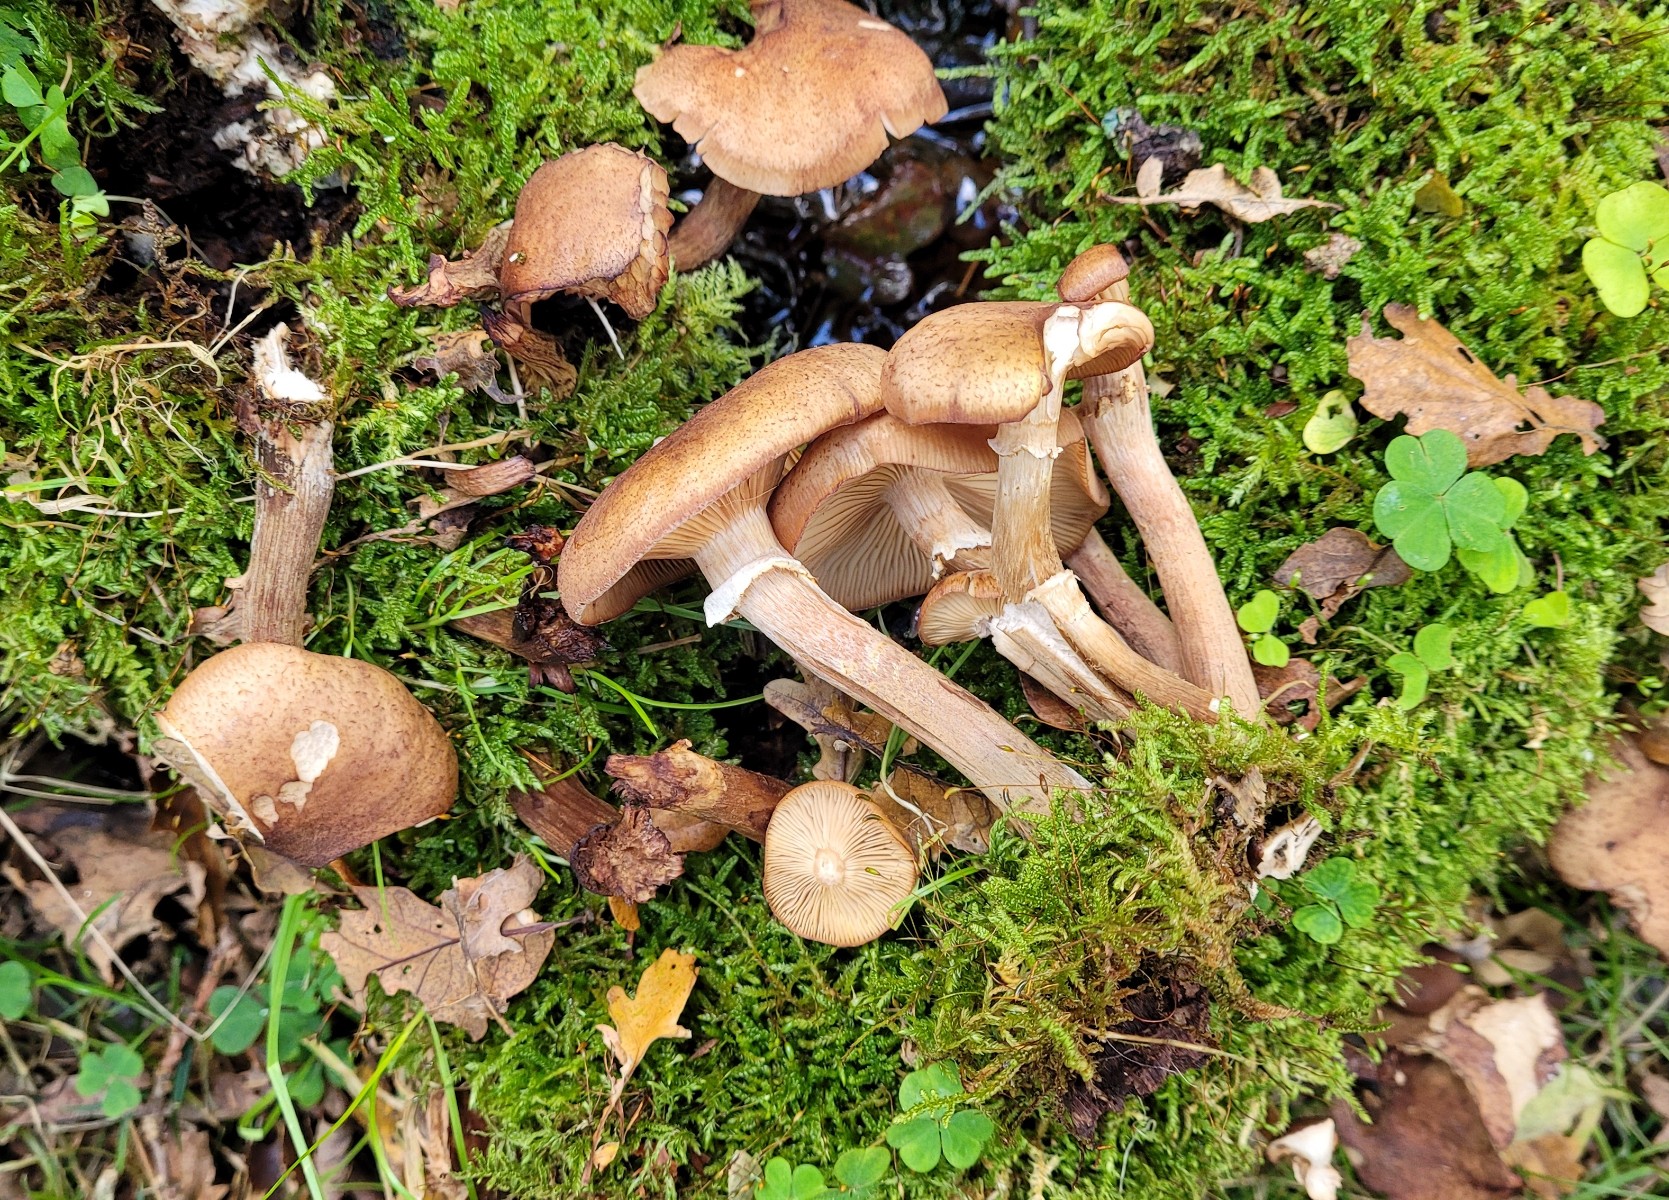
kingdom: Fungi
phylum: Basidiomycota
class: Agaricomycetes
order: Agaricales
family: Physalacriaceae
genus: Armillaria
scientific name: Armillaria lutea
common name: køllestokket honningsvamp
